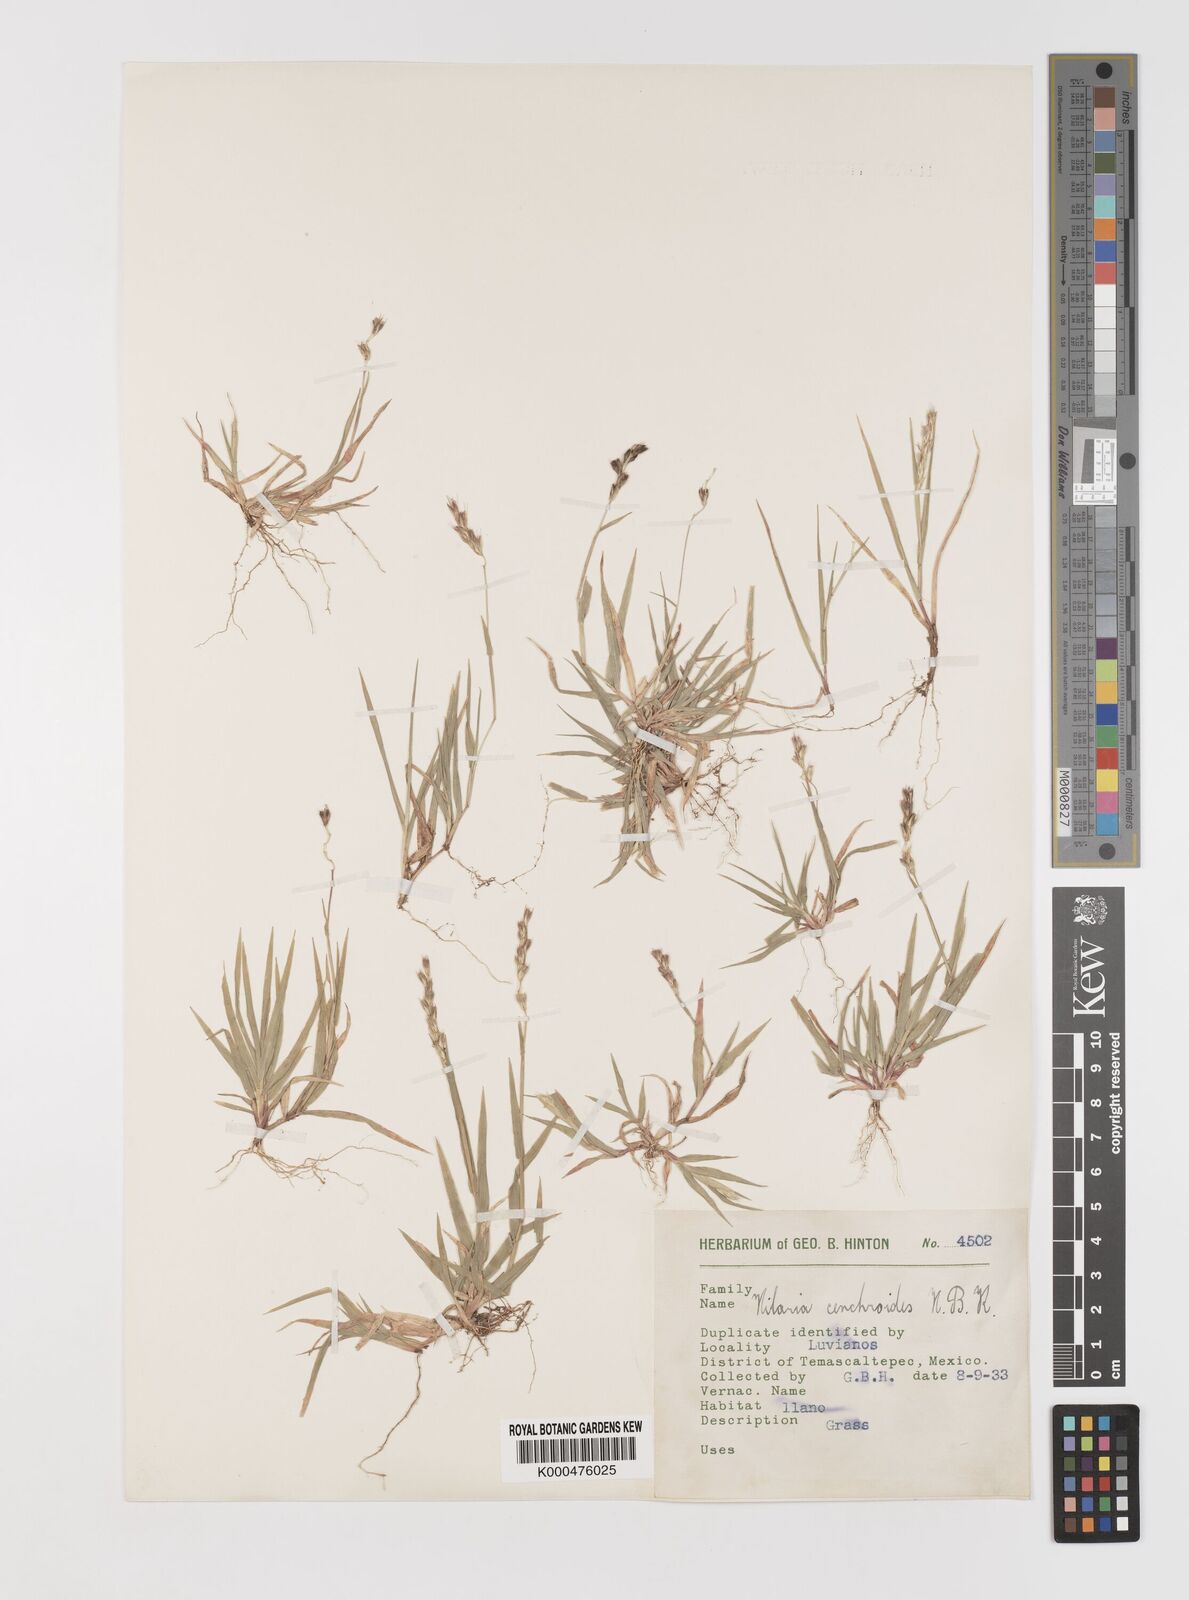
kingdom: Plantae
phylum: Tracheophyta
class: Liliopsida
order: Poales
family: Poaceae
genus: Hilaria
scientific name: Hilaria cenchroides
